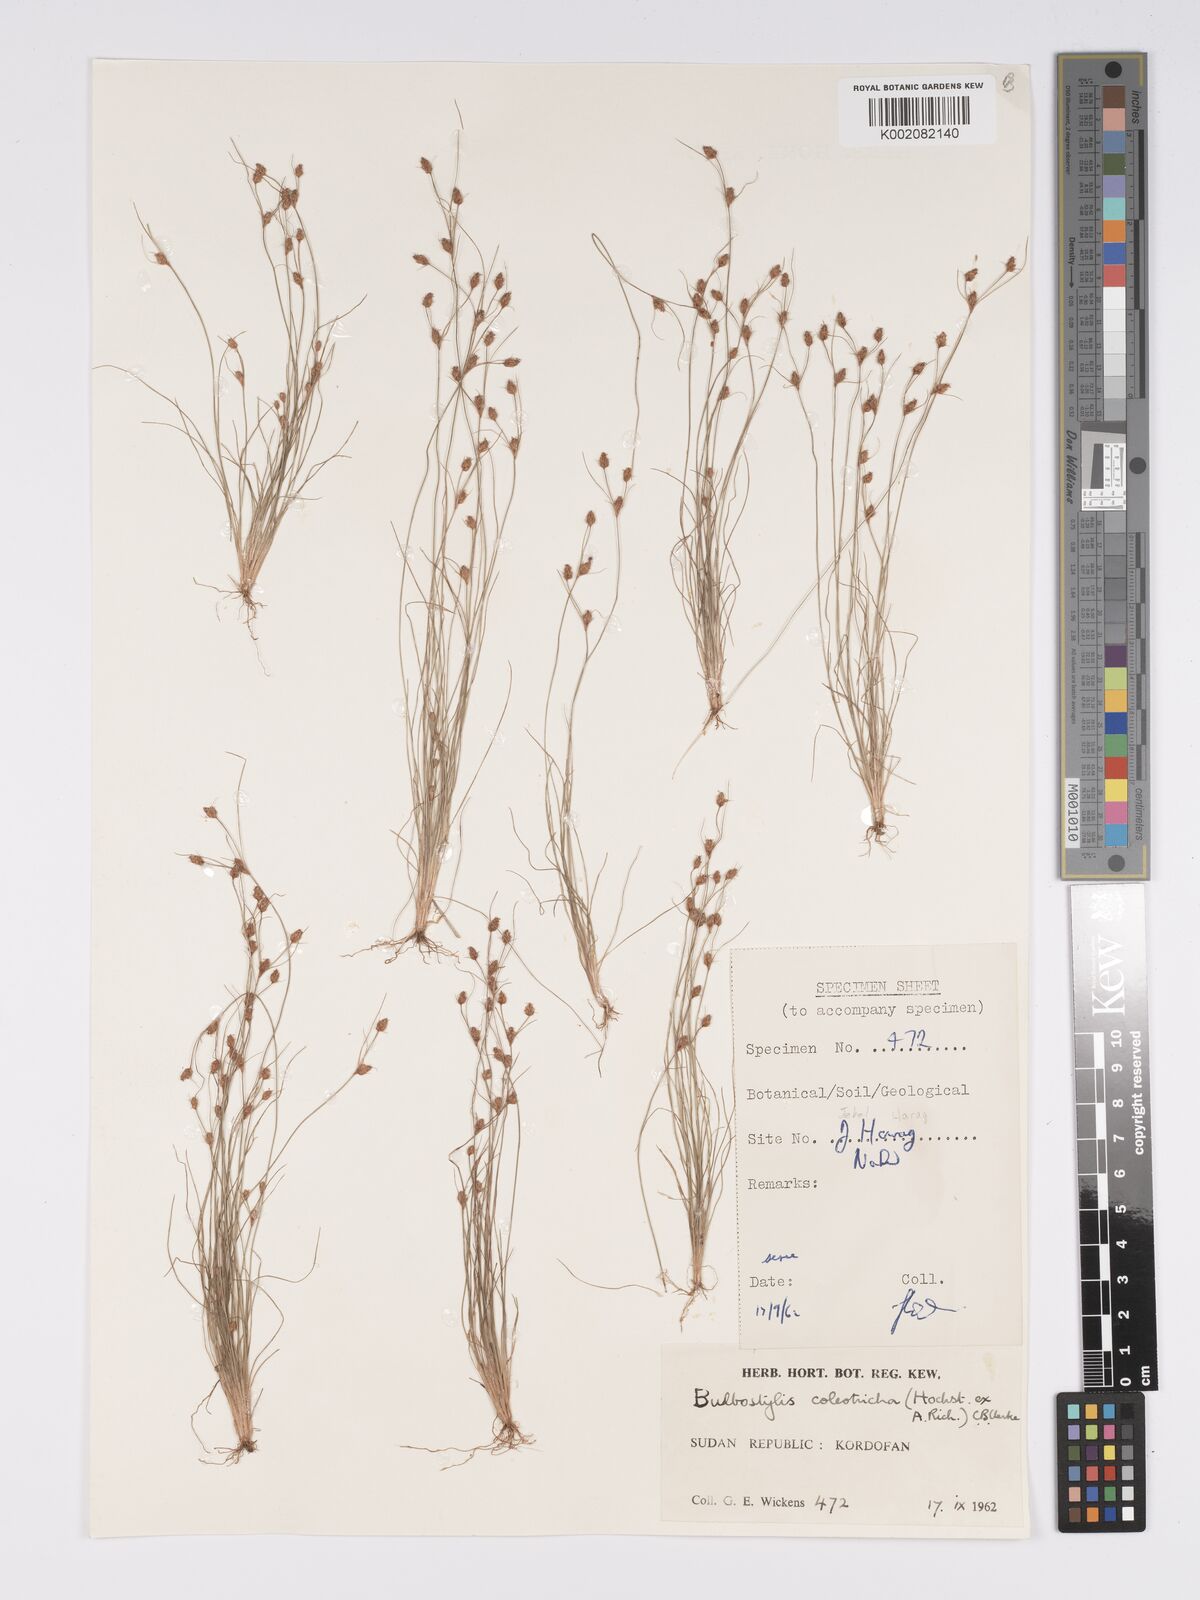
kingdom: Plantae
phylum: Tracheophyta
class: Liliopsida
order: Poales
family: Cyperaceae
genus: Bulbostylis
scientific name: Bulbostylis coleotricha
